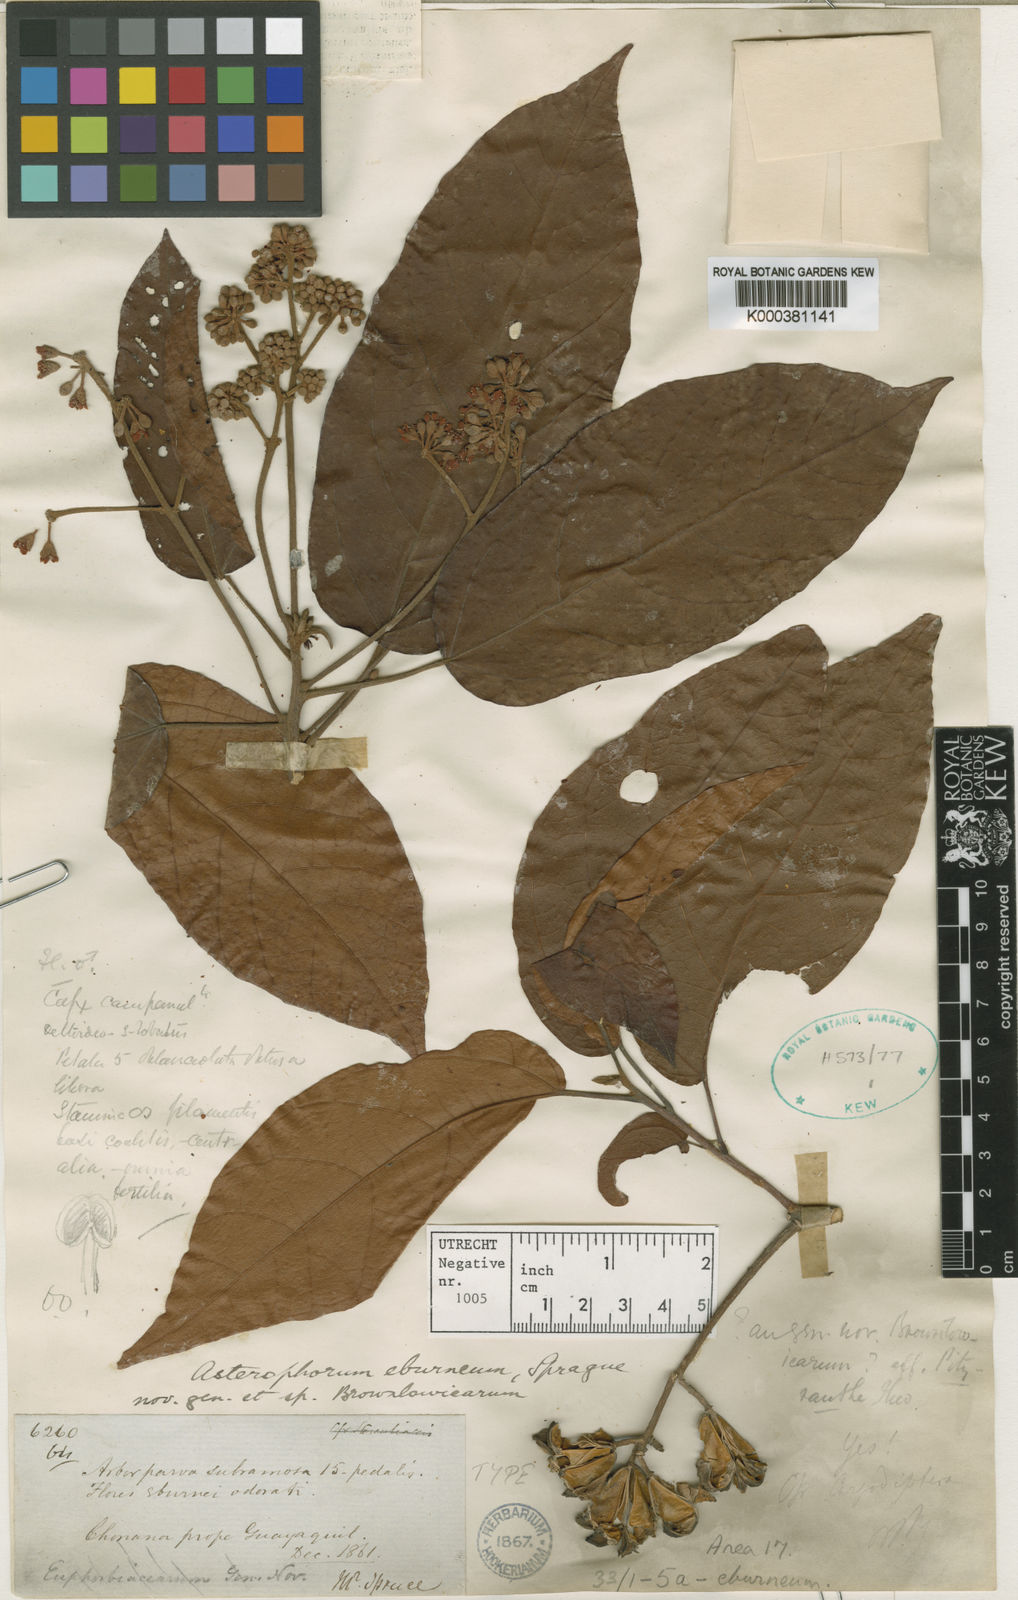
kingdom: Plantae
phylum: Tracheophyta
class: Magnoliopsida
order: Malvales
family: Malvaceae
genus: Christiana
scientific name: Christiana eburnea
